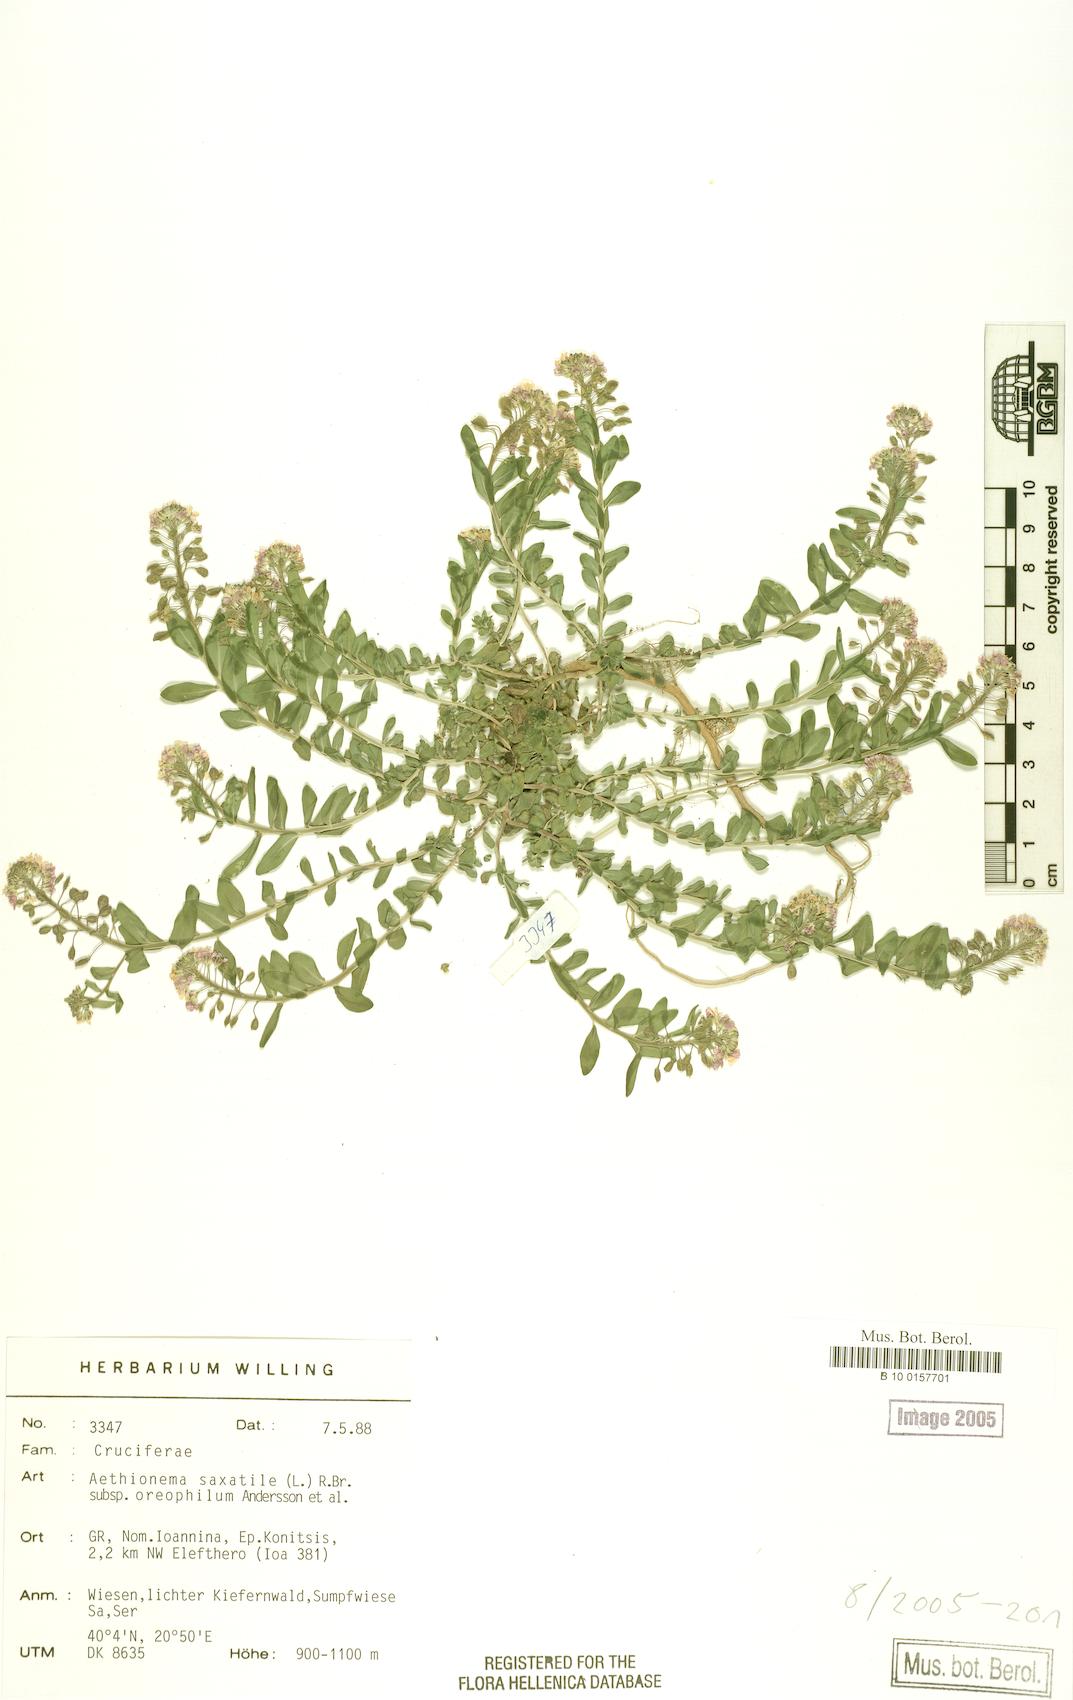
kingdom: Plantae
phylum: Tracheophyta
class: Magnoliopsida
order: Brassicales
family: Brassicaceae
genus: Aethionema
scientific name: Aethionema saxatile
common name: Burnt candytuft
